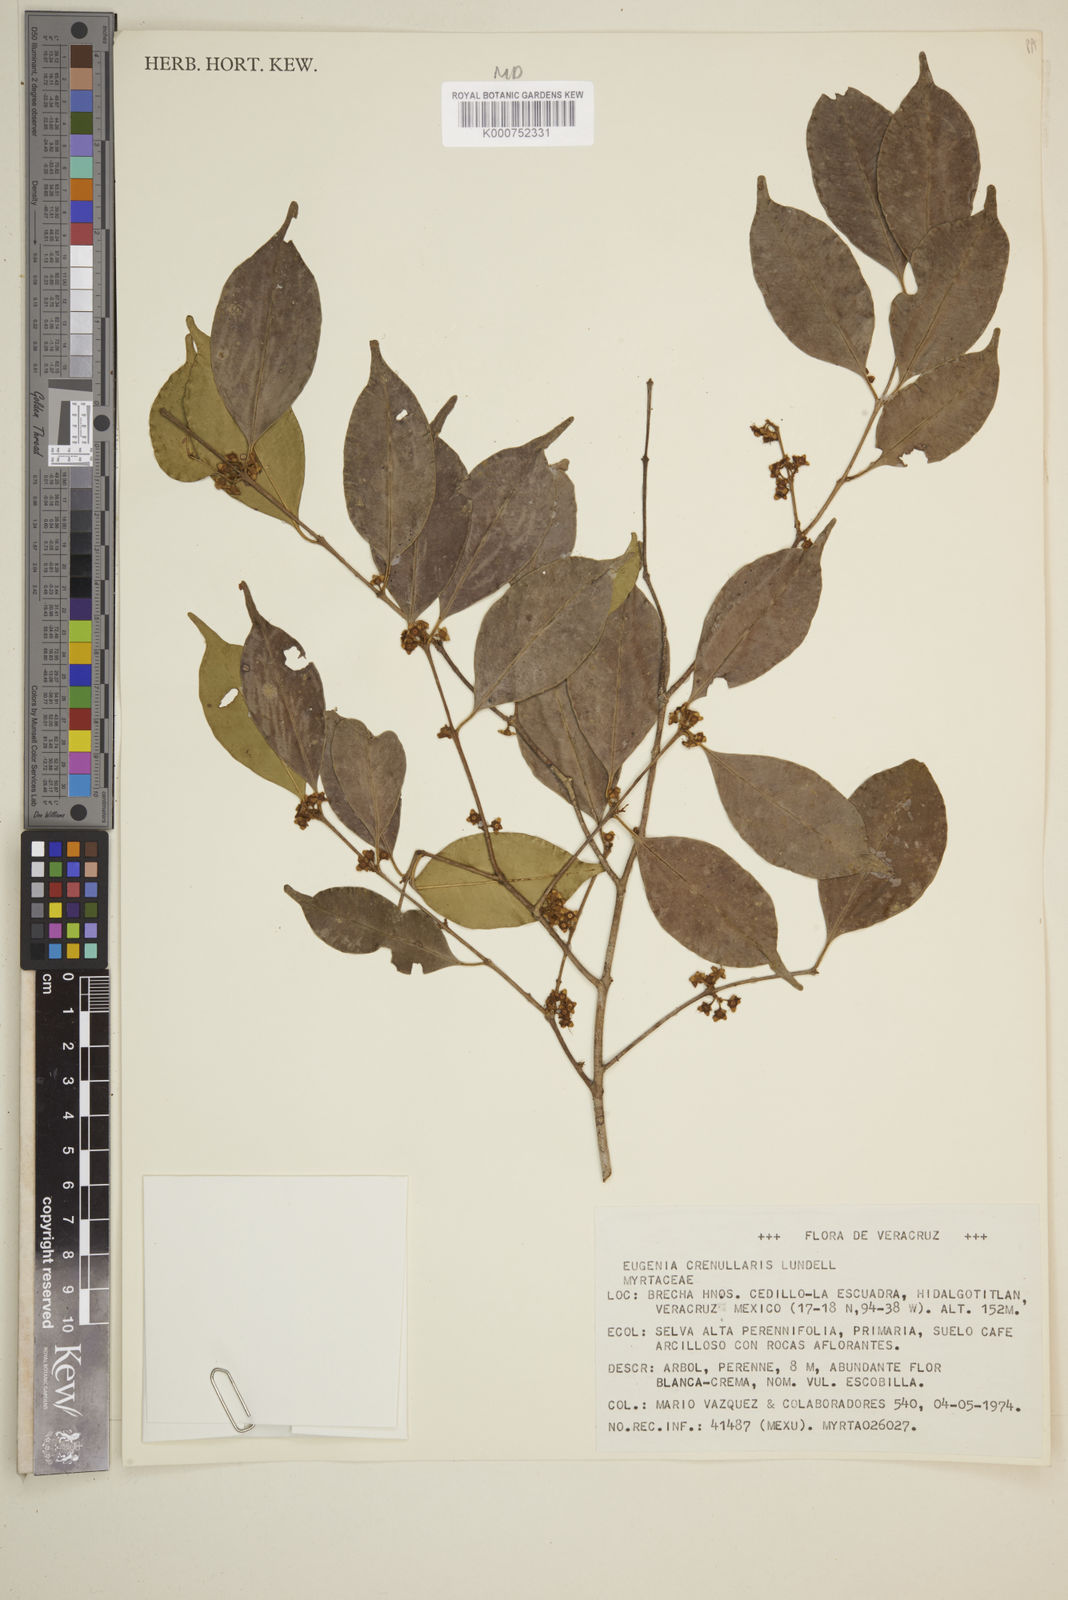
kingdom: Plantae
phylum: Tracheophyta
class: Magnoliopsida
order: Myrtales
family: Myrtaceae
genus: Eugenia
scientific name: Eugenia crenularis
